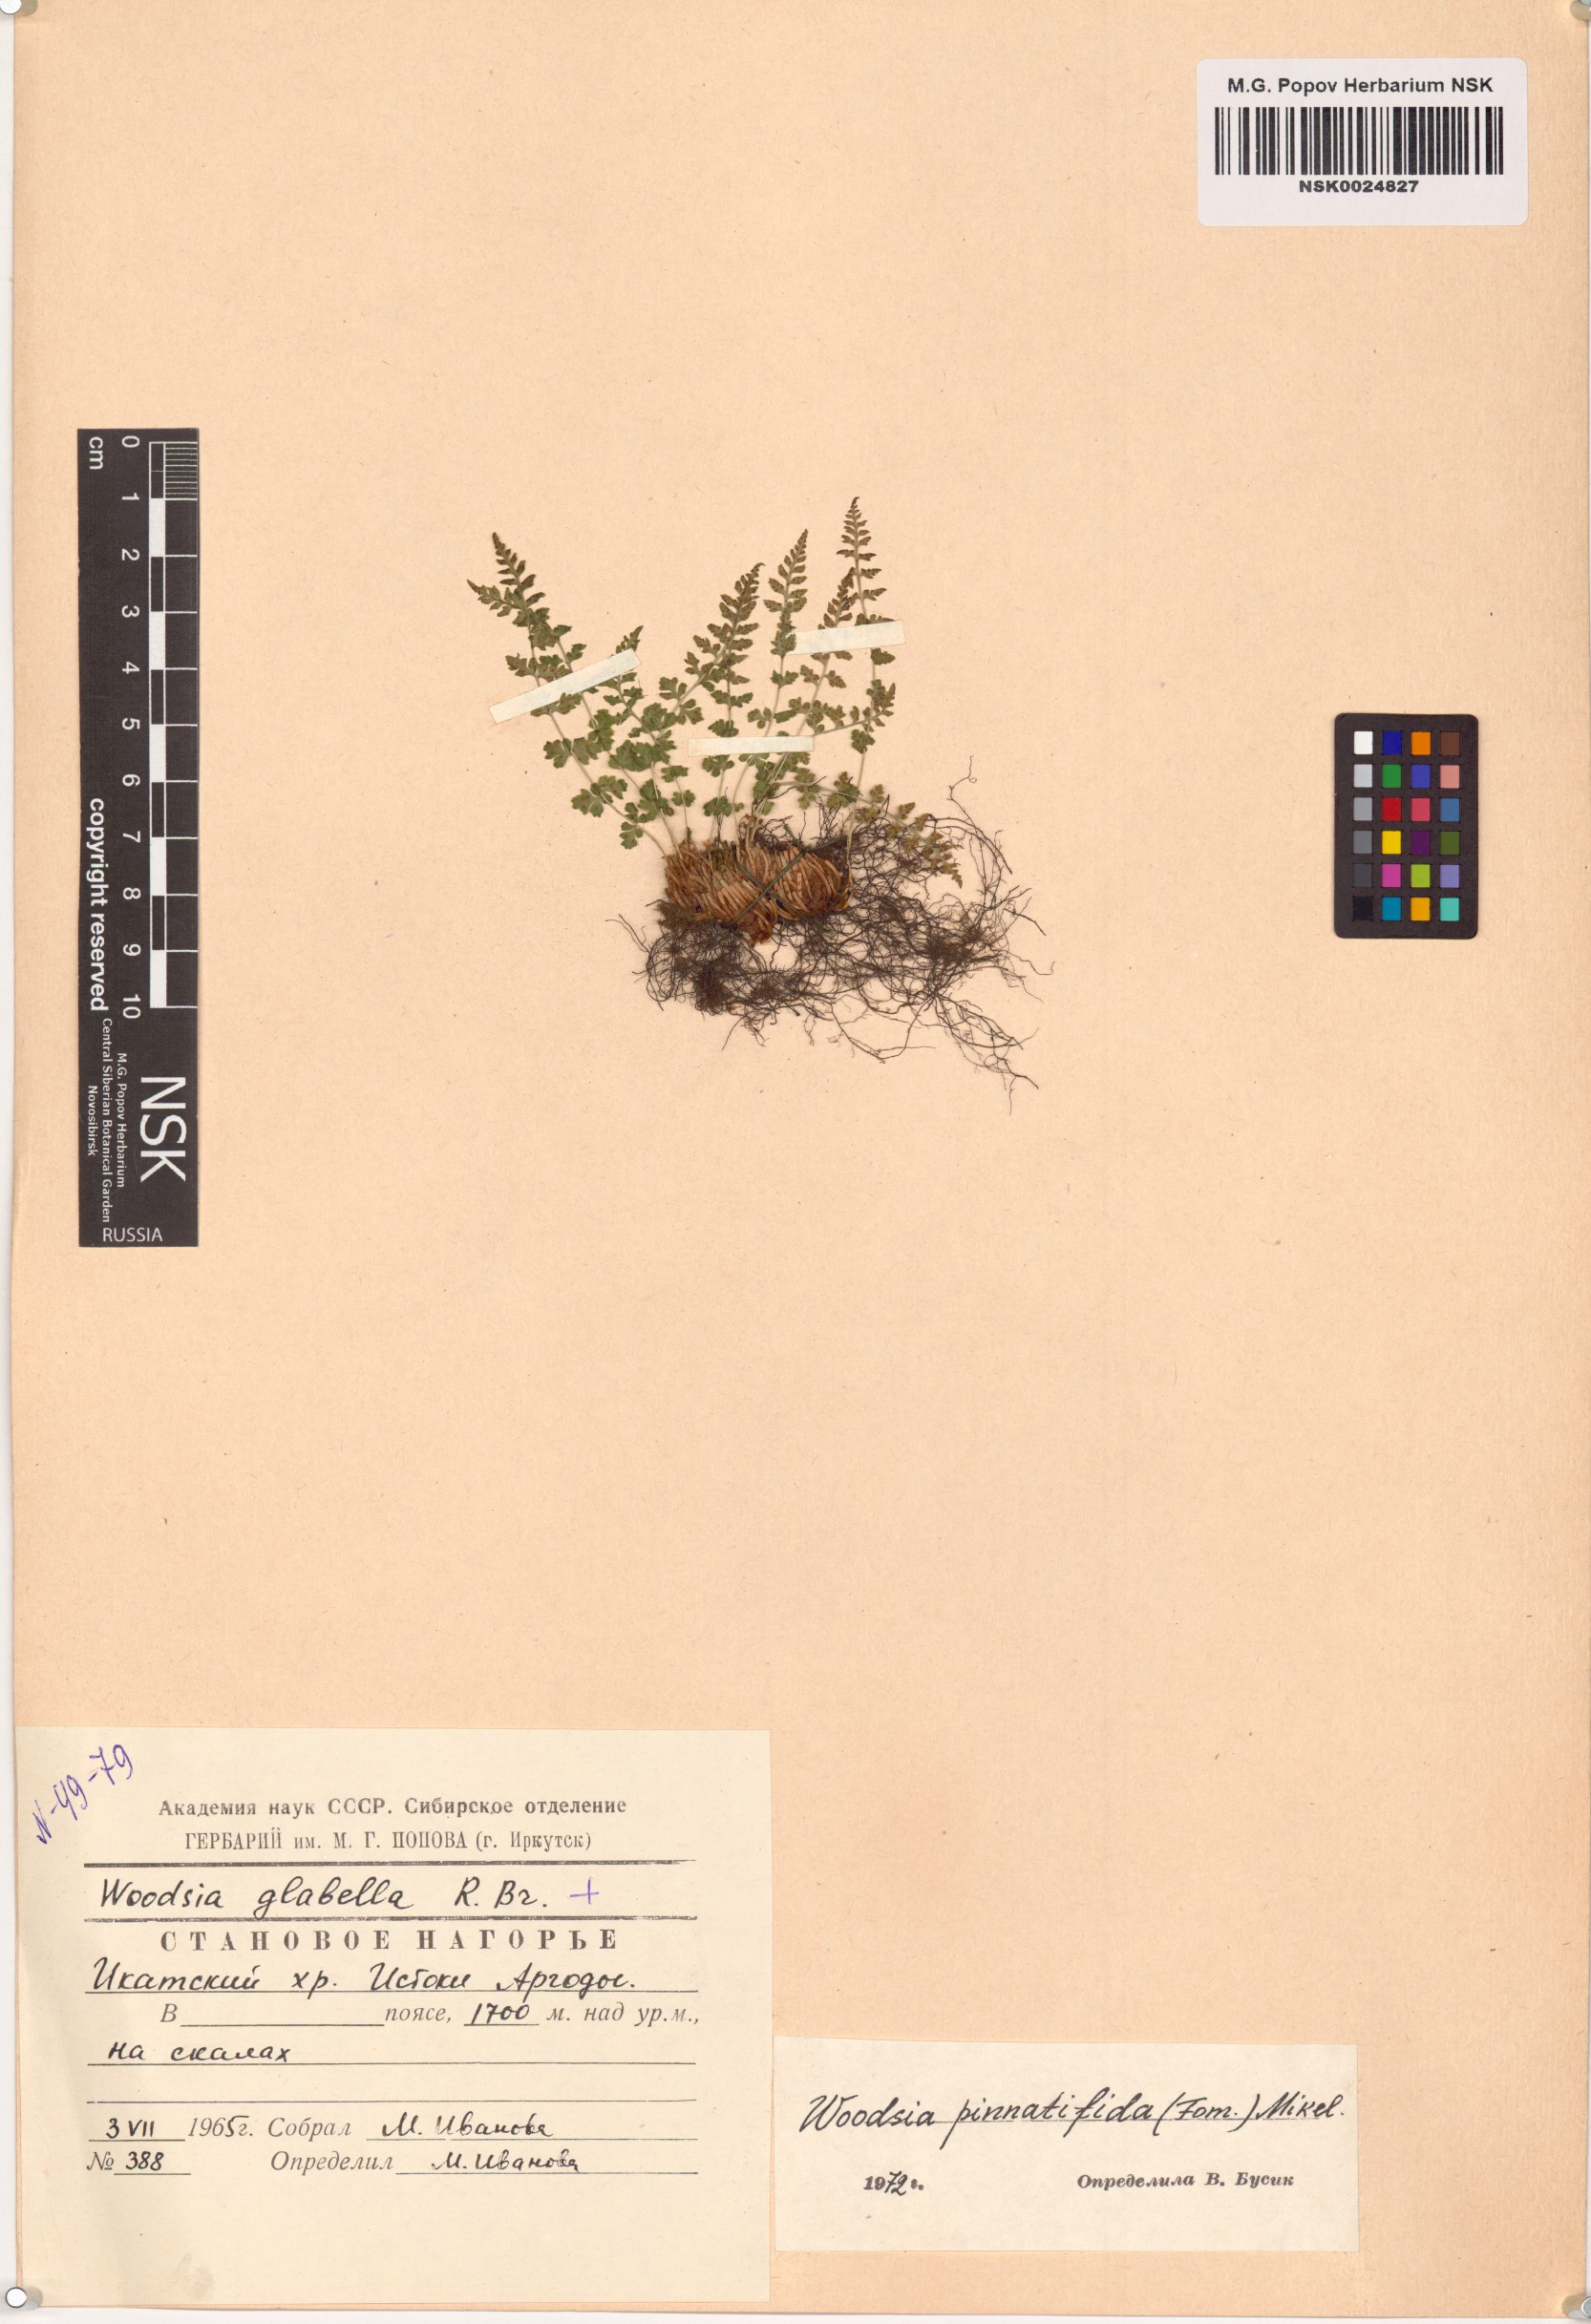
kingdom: Plantae
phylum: Tracheophyta
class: Polypodiopsida
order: Polypodiales
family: Woodsiaceae
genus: Woodsia
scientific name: Woodsia pulchella
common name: Graceful woodsia
